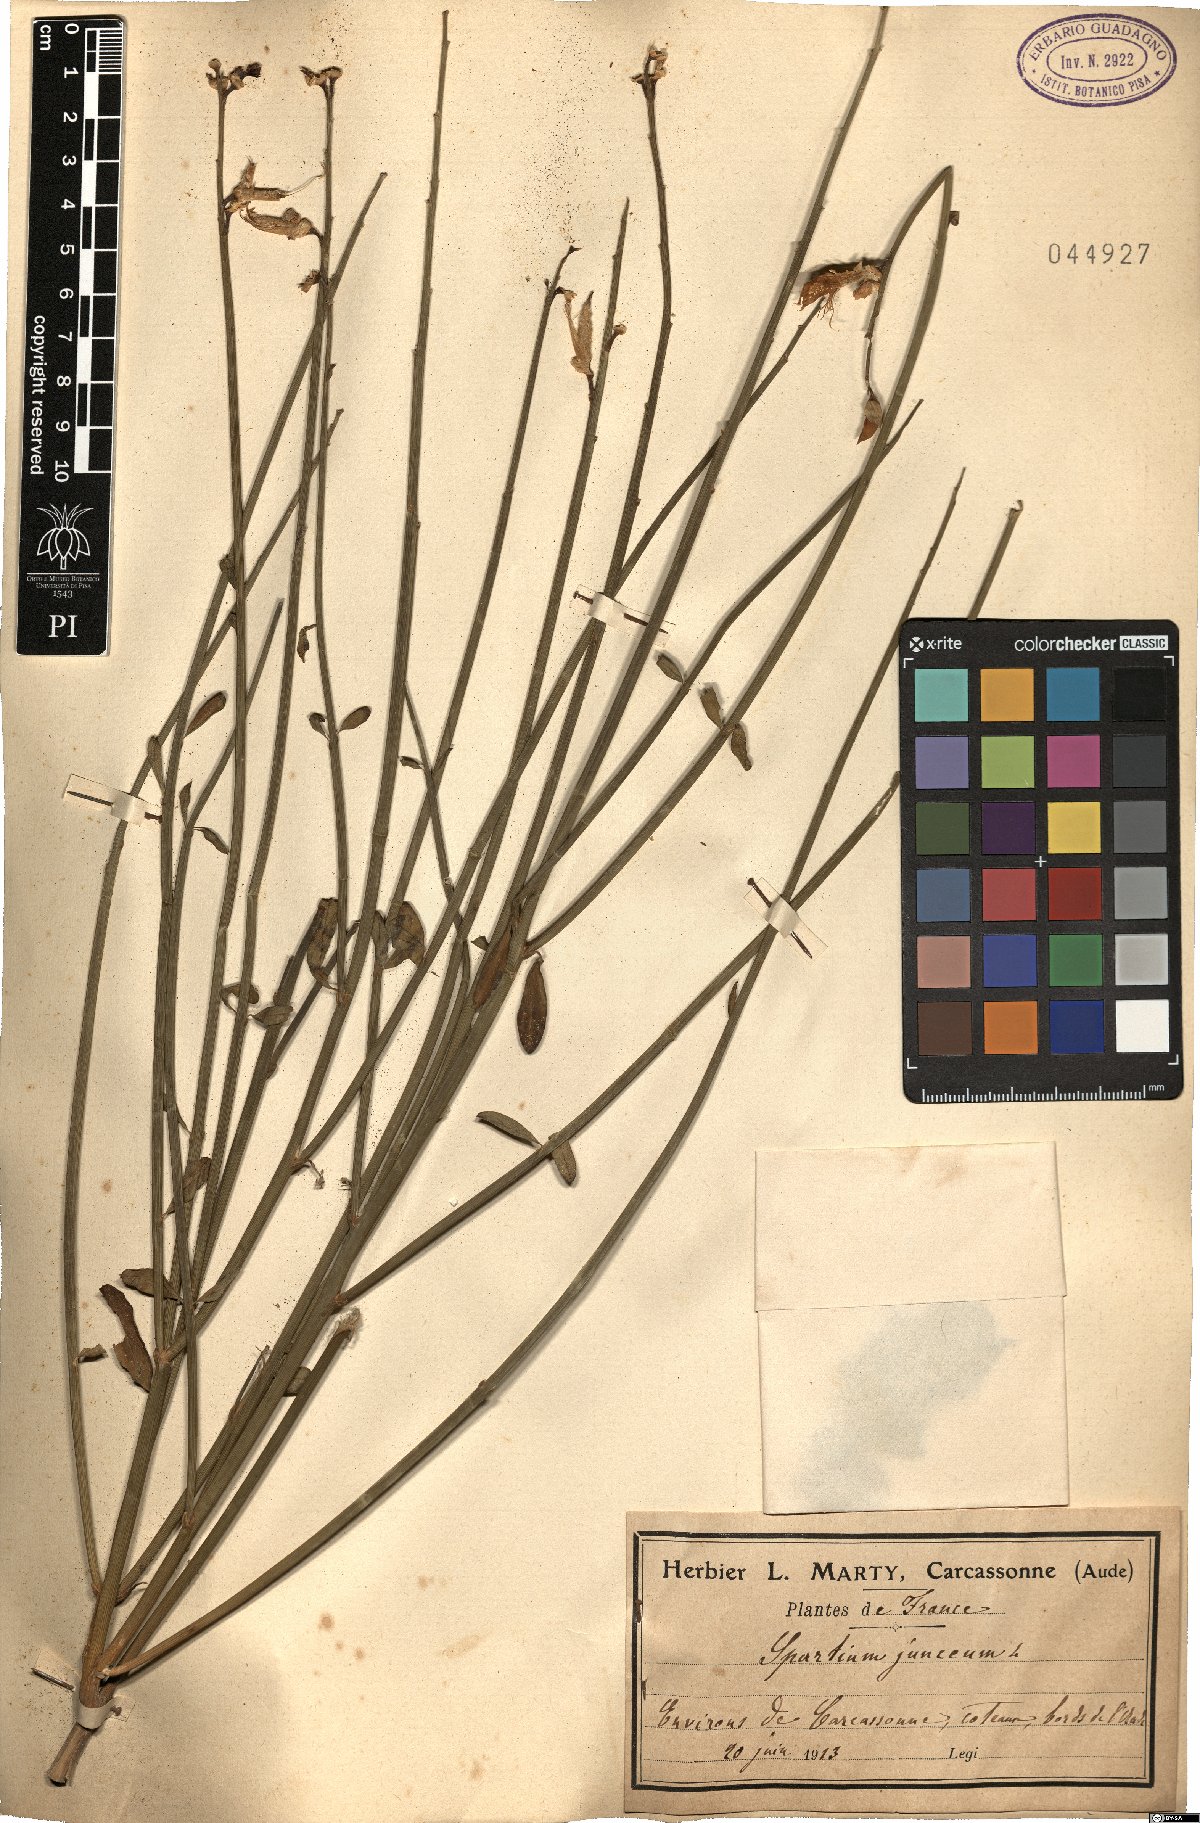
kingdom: Plantae
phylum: Tracheophyta
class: Magnoliopsida
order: Fabales
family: Fabaceae
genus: Spartium
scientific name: Spartium junceum
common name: Spanish broom
